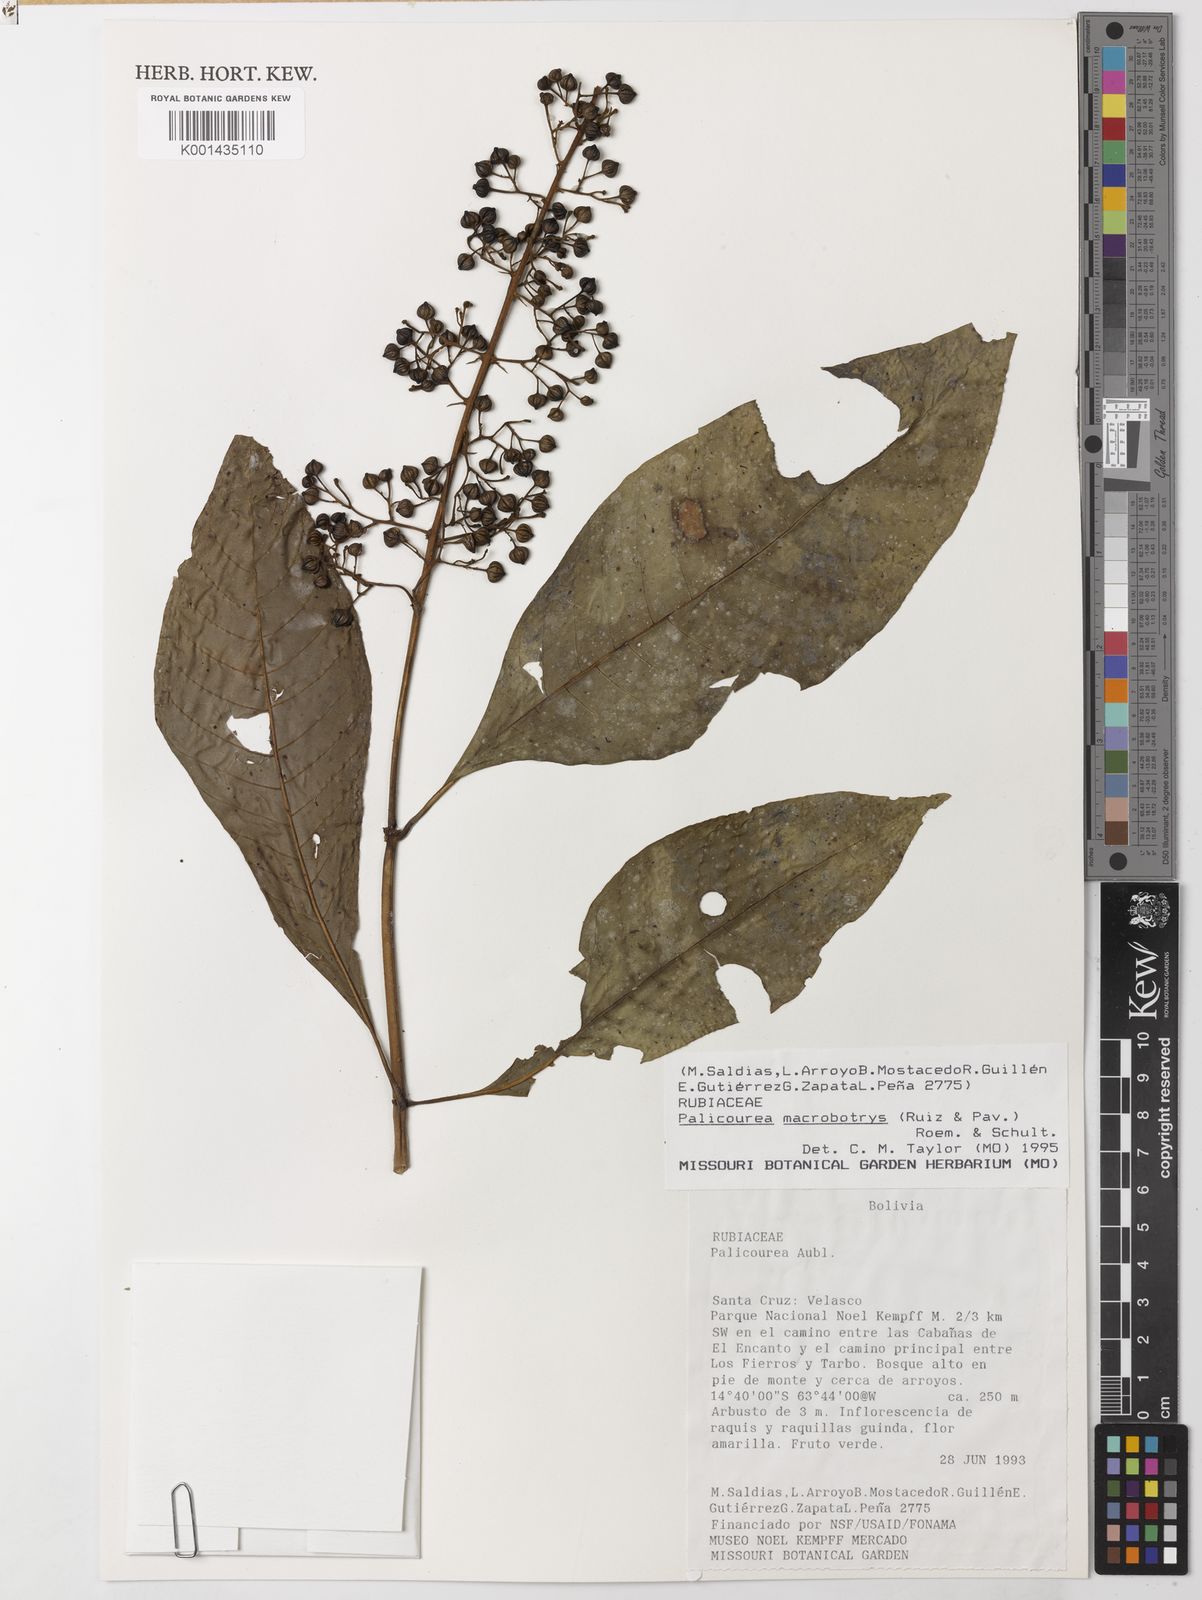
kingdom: Plantae
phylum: Tracheophyta
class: Magnoliopsida
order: Gentianales
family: Rubiaceae
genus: Palicourea
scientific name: Palicourea macrobotrys
